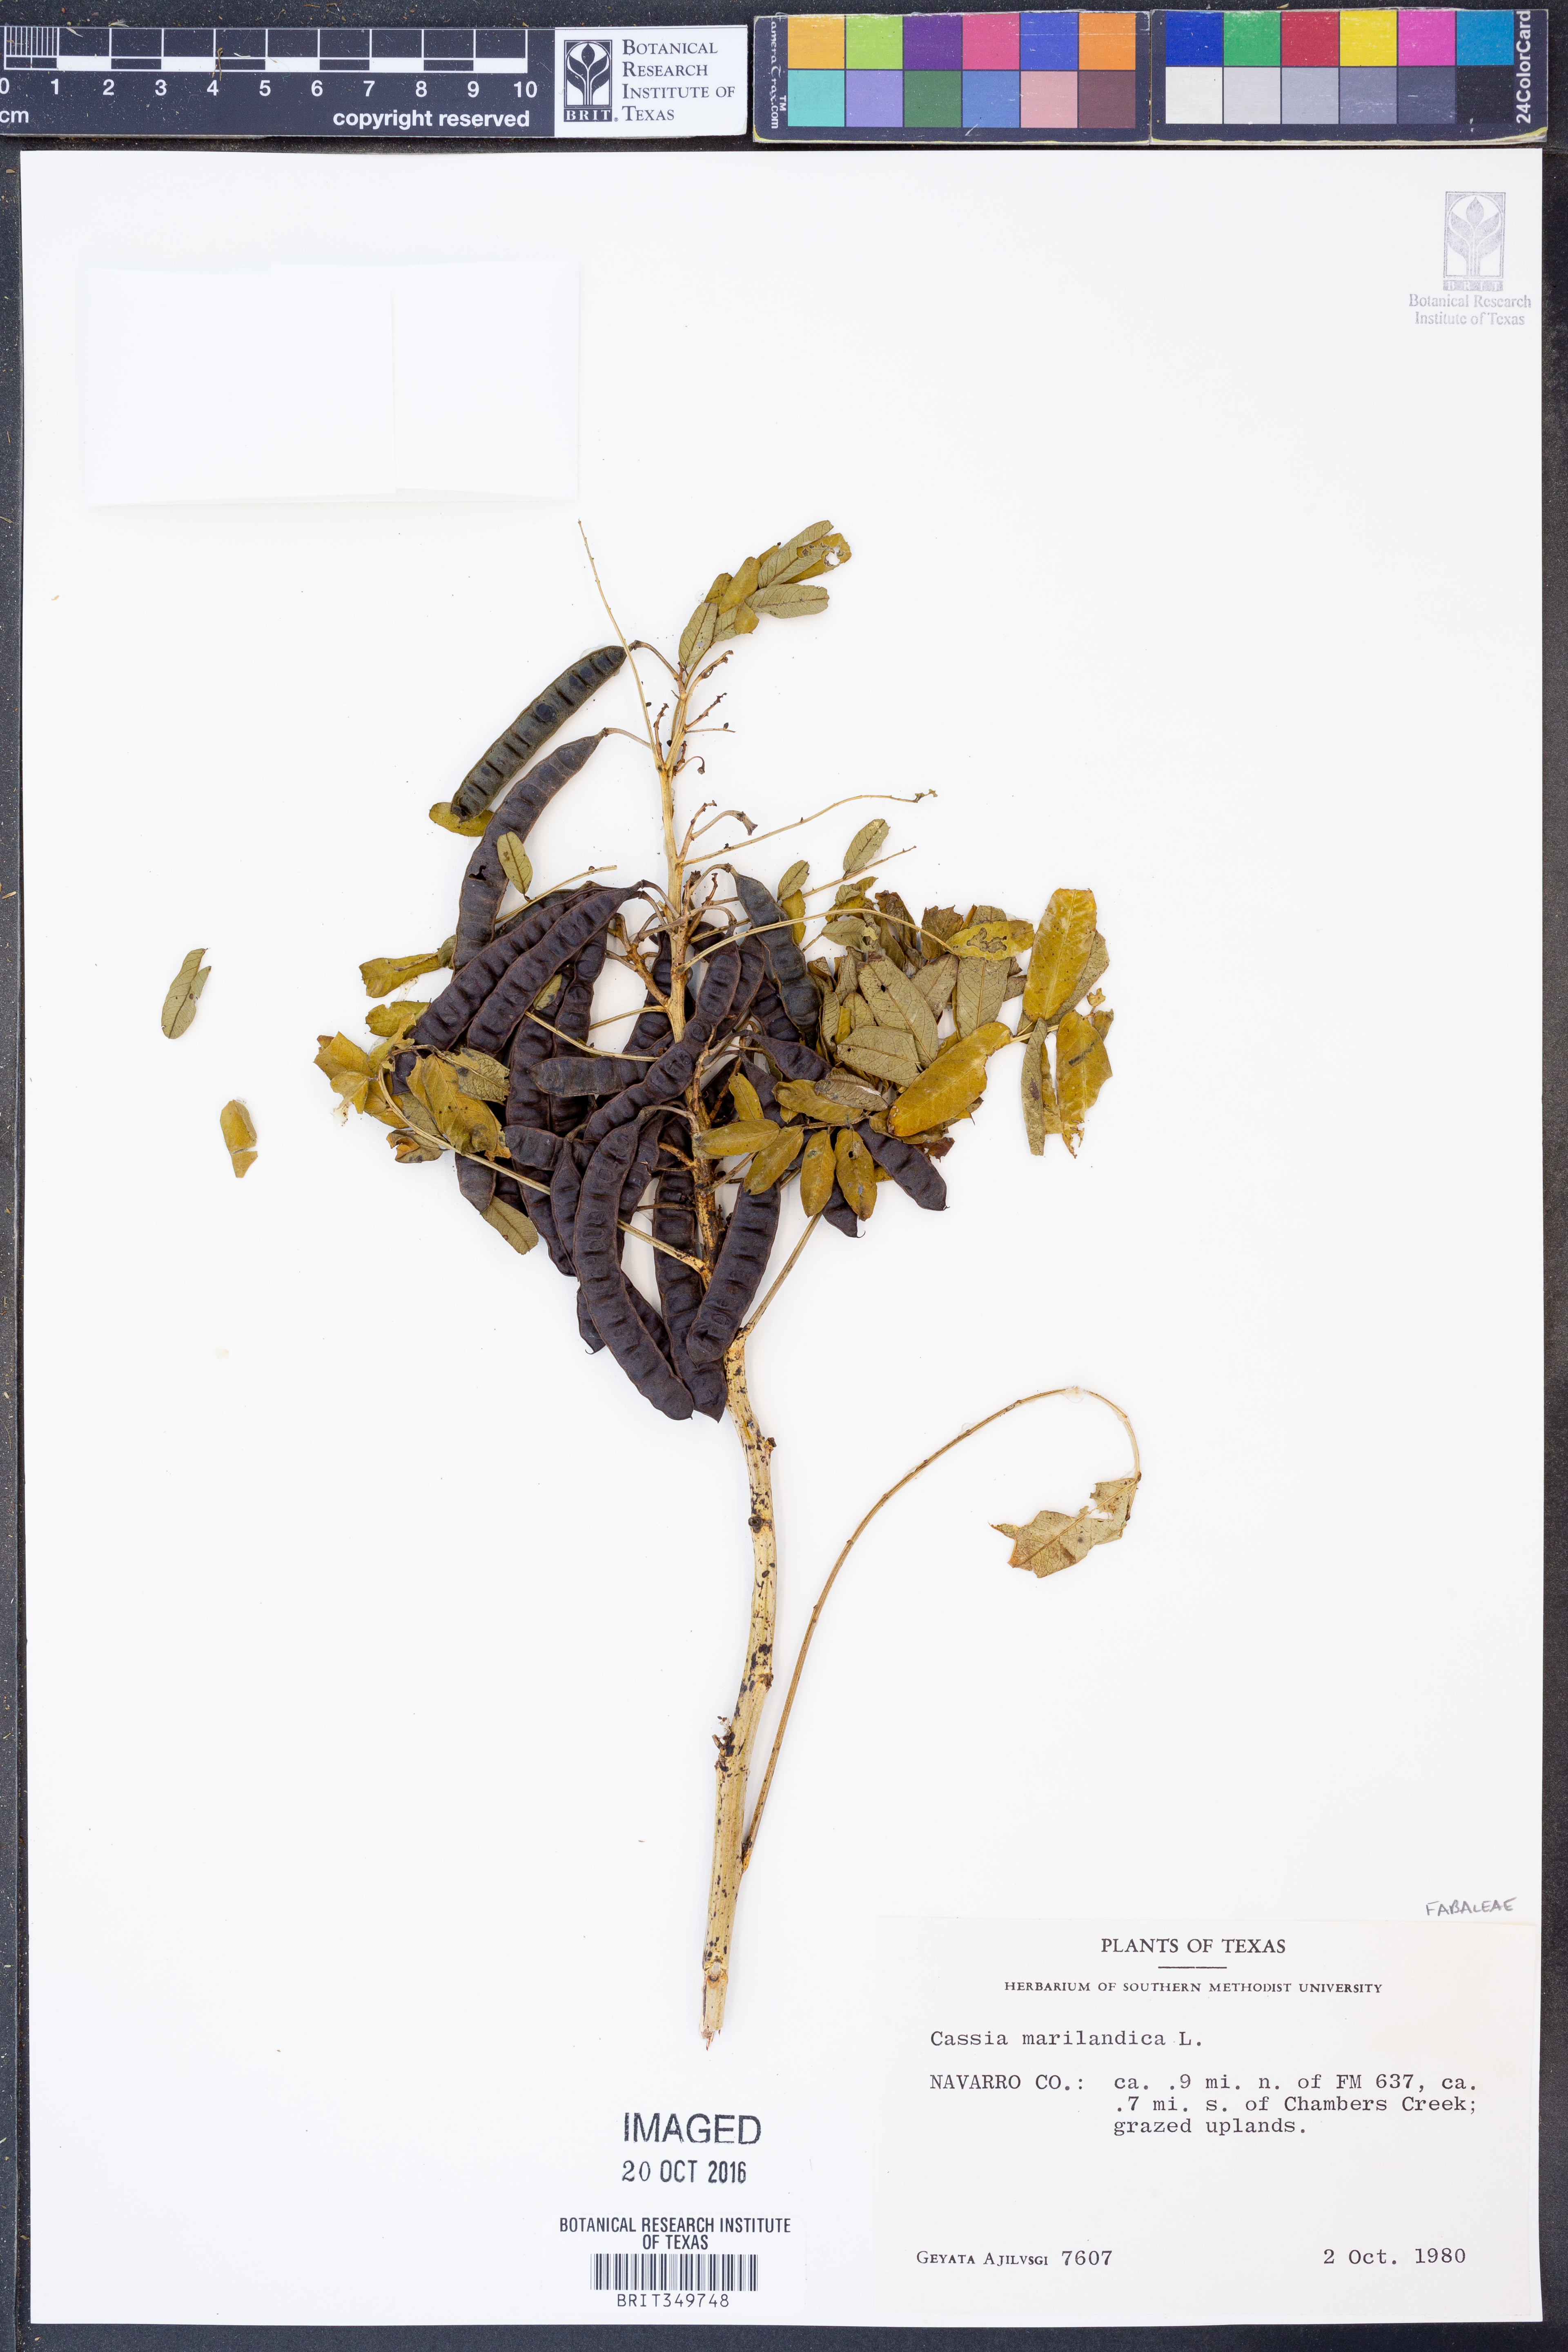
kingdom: Plantae
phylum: Tracheophyta
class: Magnoliopsida
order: Fabales
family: Fabaceae
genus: Senna
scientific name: Senna marilandica
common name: American senna
